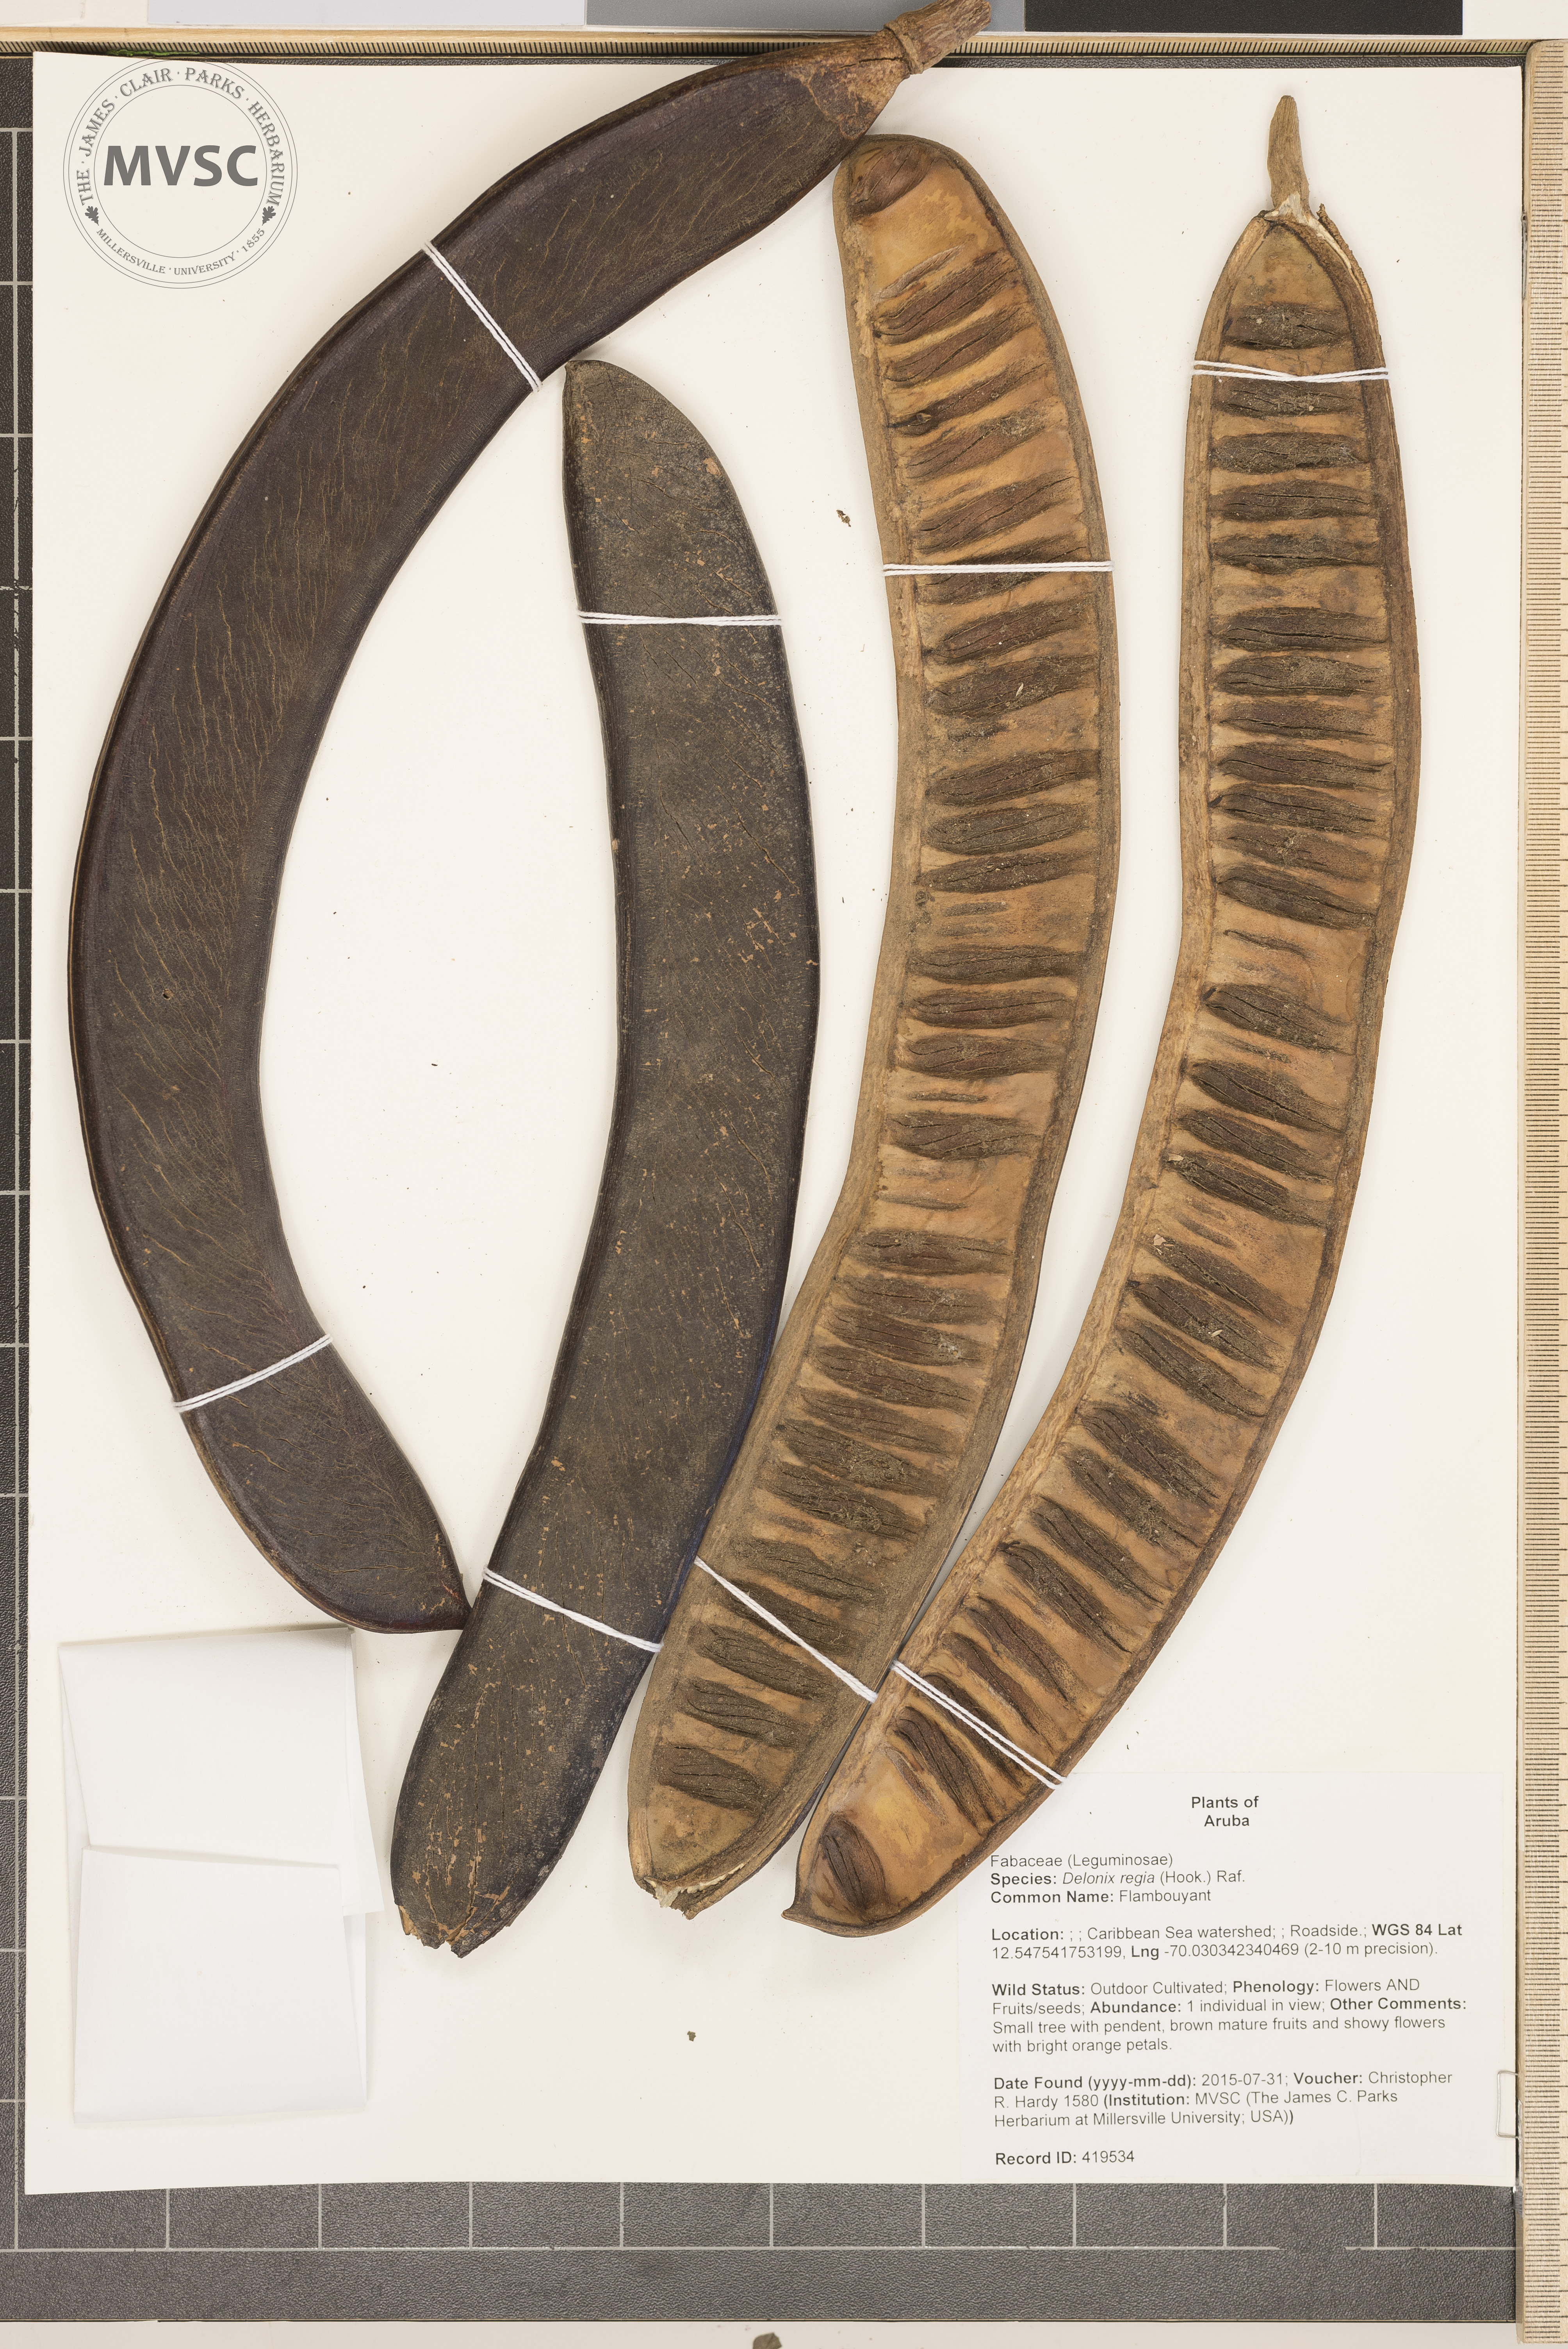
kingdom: Plantae
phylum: Tracheophyta
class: Magnoliopsida
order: Fabales
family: Fabaceae
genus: Delonix
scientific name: Delonix regia
